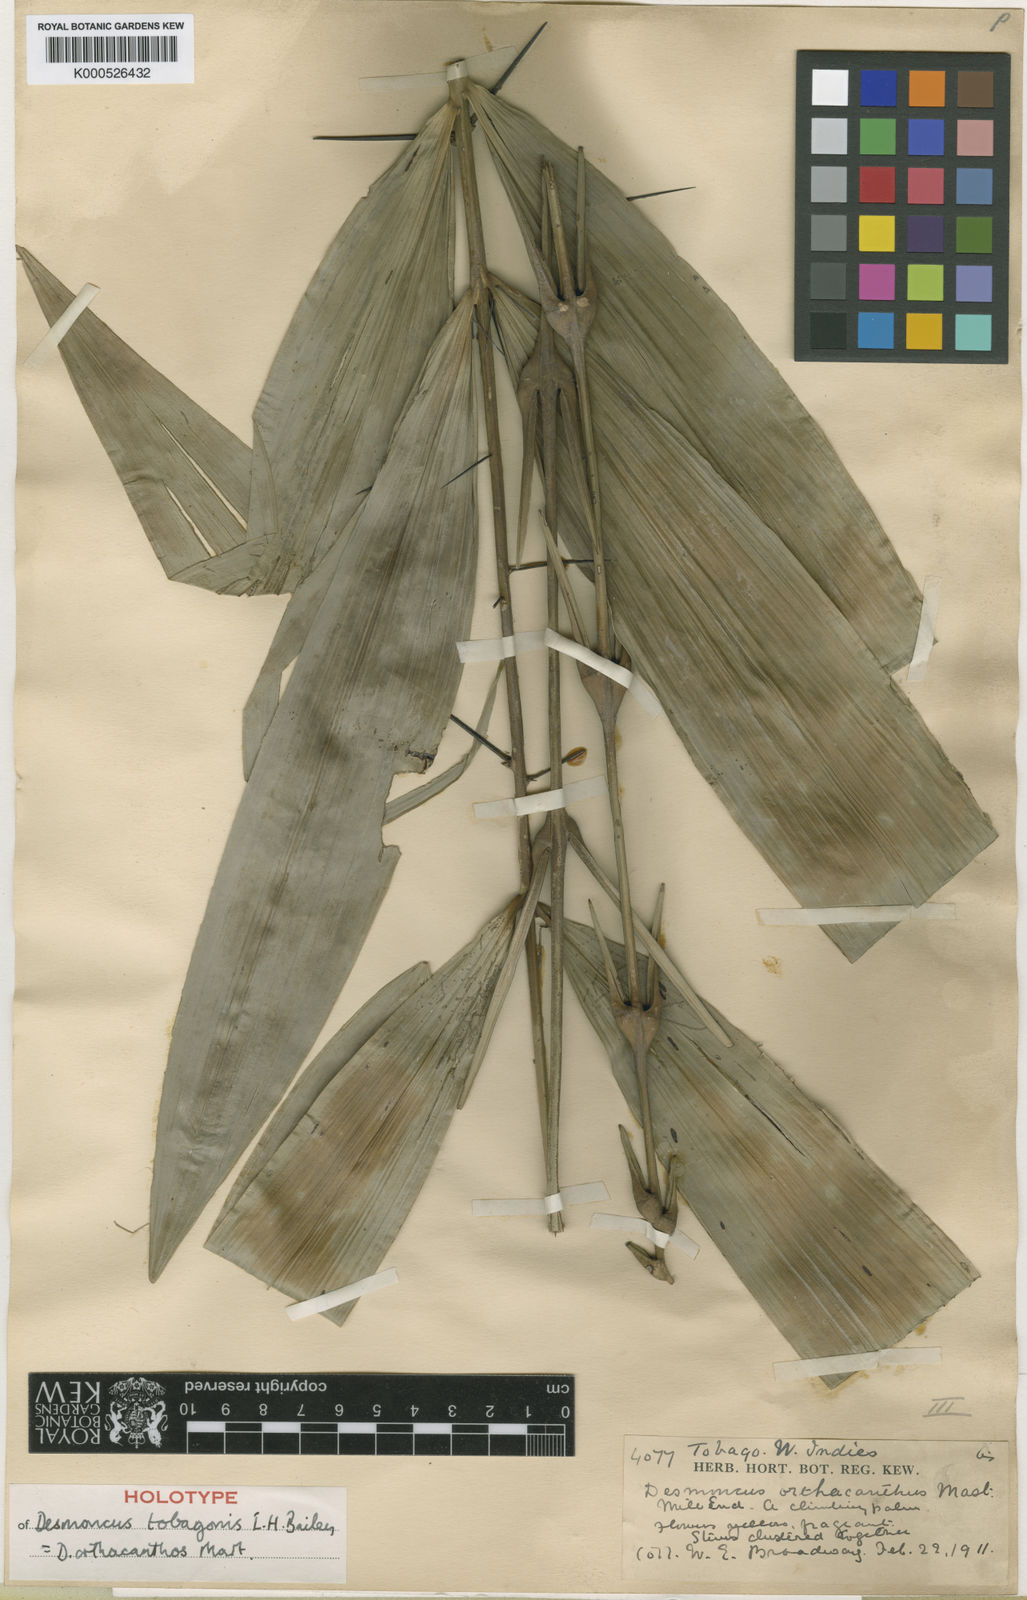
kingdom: Plantae
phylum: Tracheophyta
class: Liliopsida
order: Arecales
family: Arecaceae
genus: Desmoncus
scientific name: Desmoncus orthacanthos
